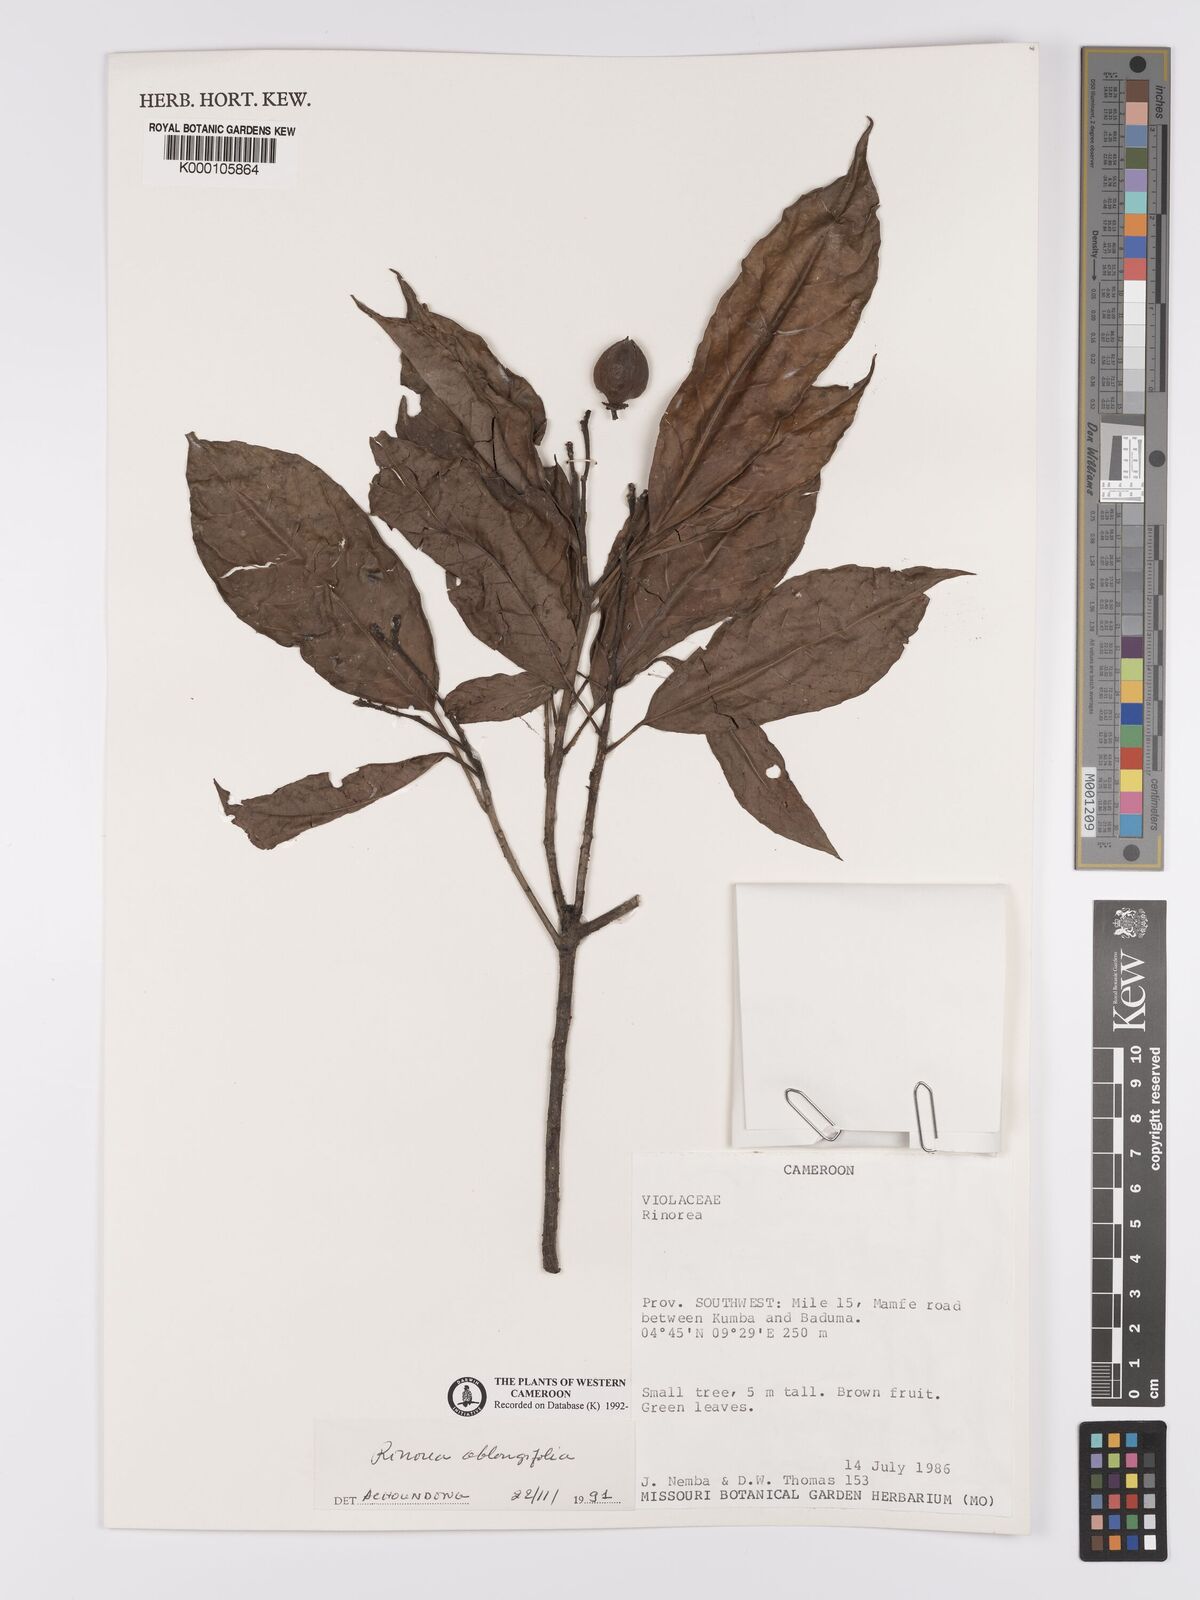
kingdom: Plantae
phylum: Tracheophyta
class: Magnoliopsida
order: Apiales
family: Pittosporaceae
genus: Marianthus
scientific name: Marianthus coeruleopunctatus
